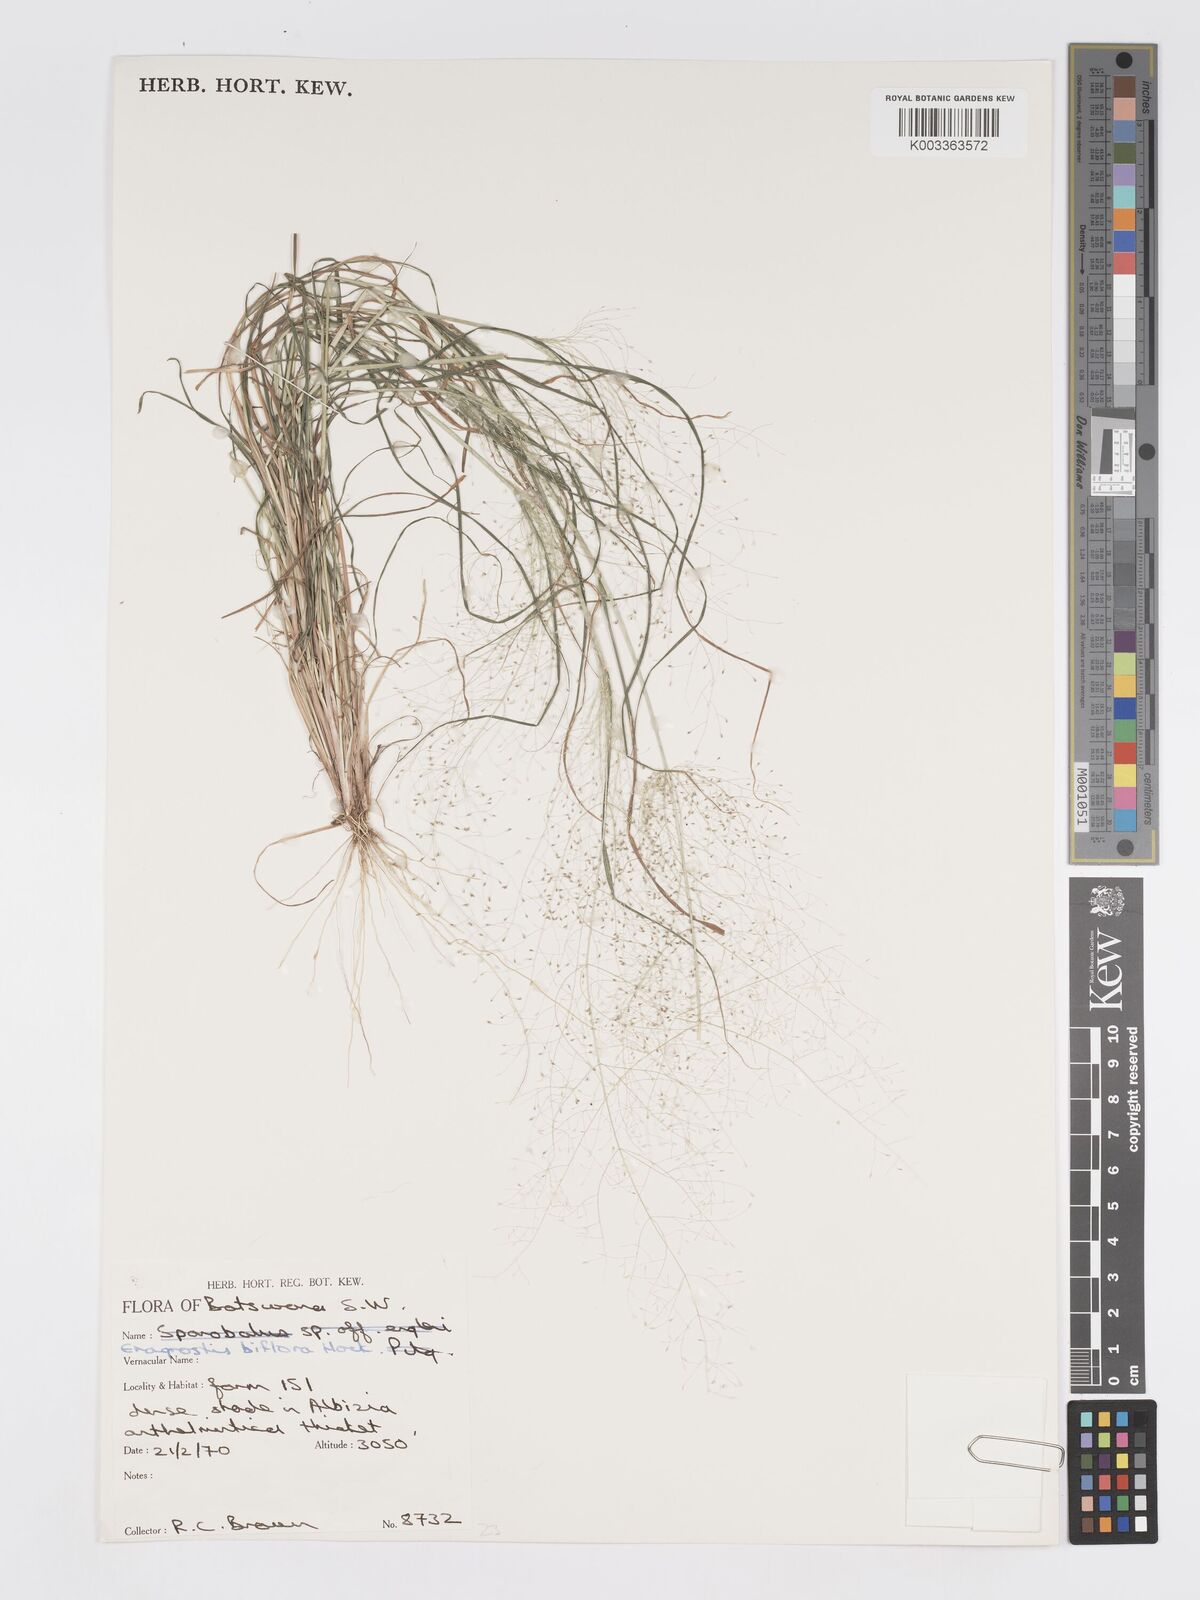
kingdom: Plantae
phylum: Tracheophyta
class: Liliopsida
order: Poales
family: Poaceae
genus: Eragrostis
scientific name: Eragrostis biflora
